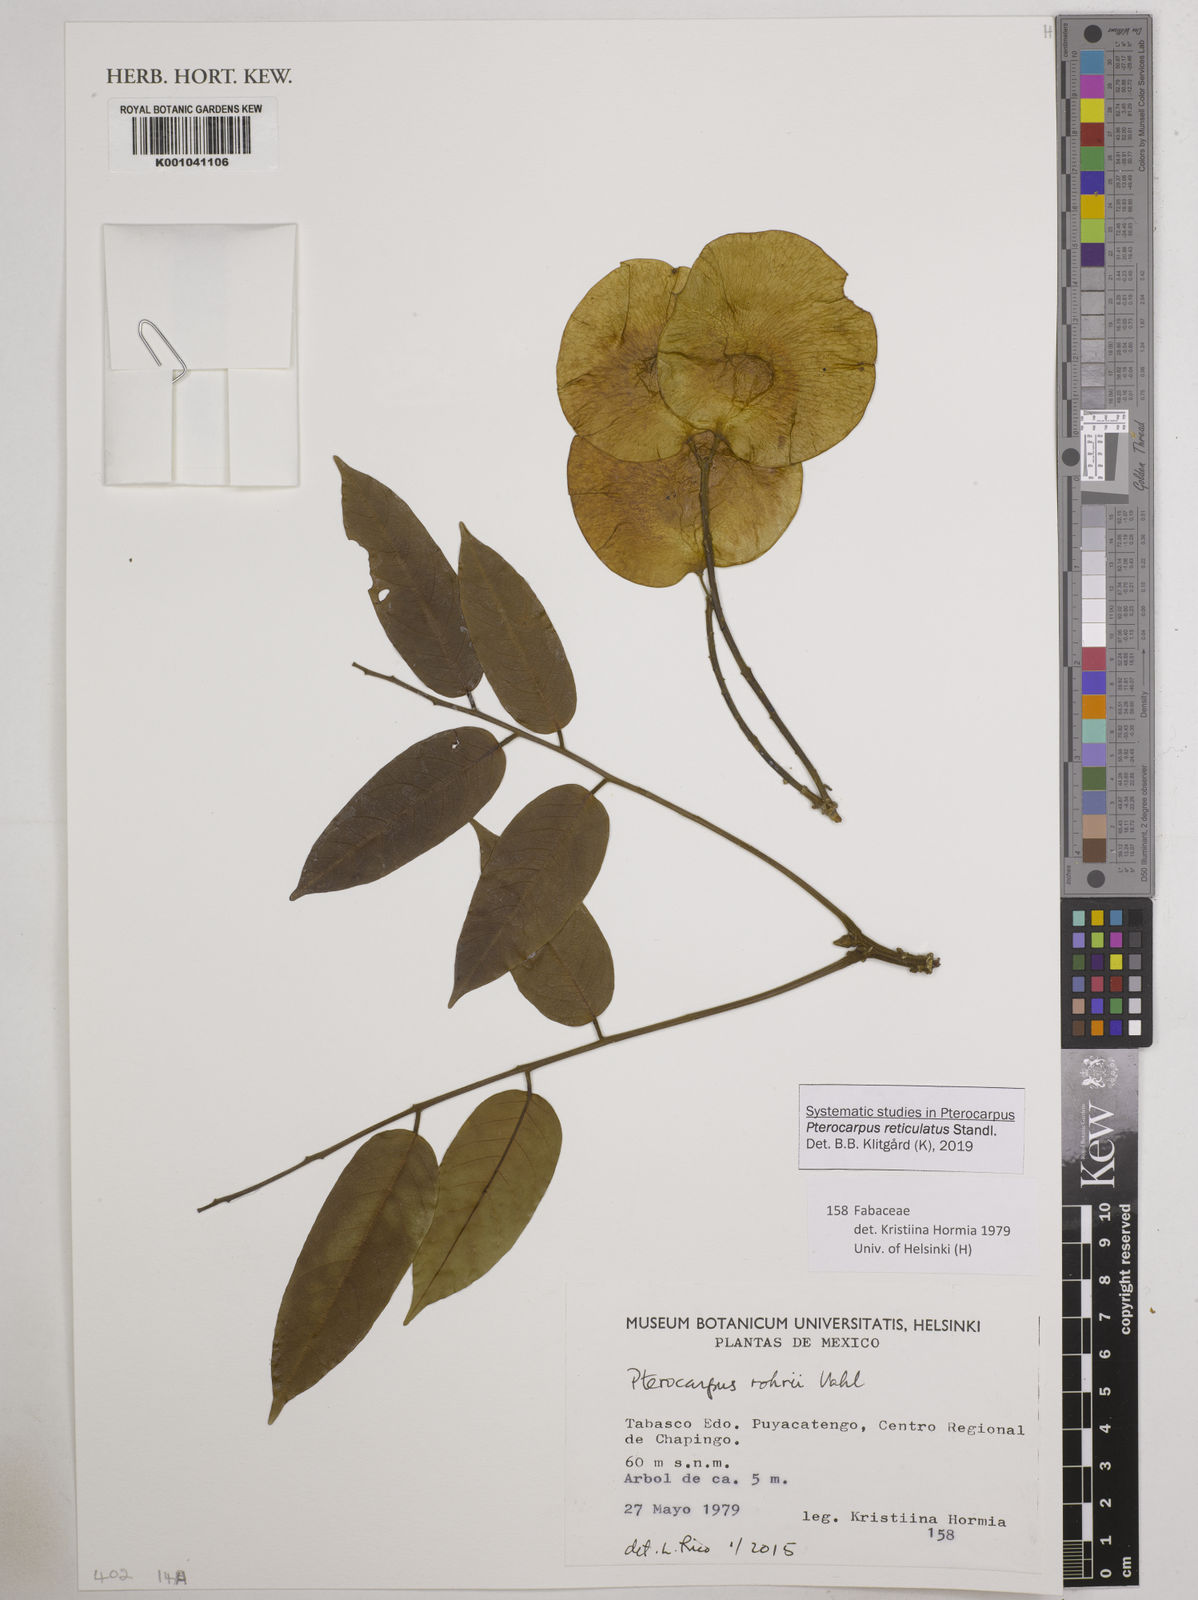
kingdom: Plantae
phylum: Tracheophyta
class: Magnoliopsida
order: Fabales
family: Fabaceae
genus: Pterocarpus
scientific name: Pterocarpus rohrii
